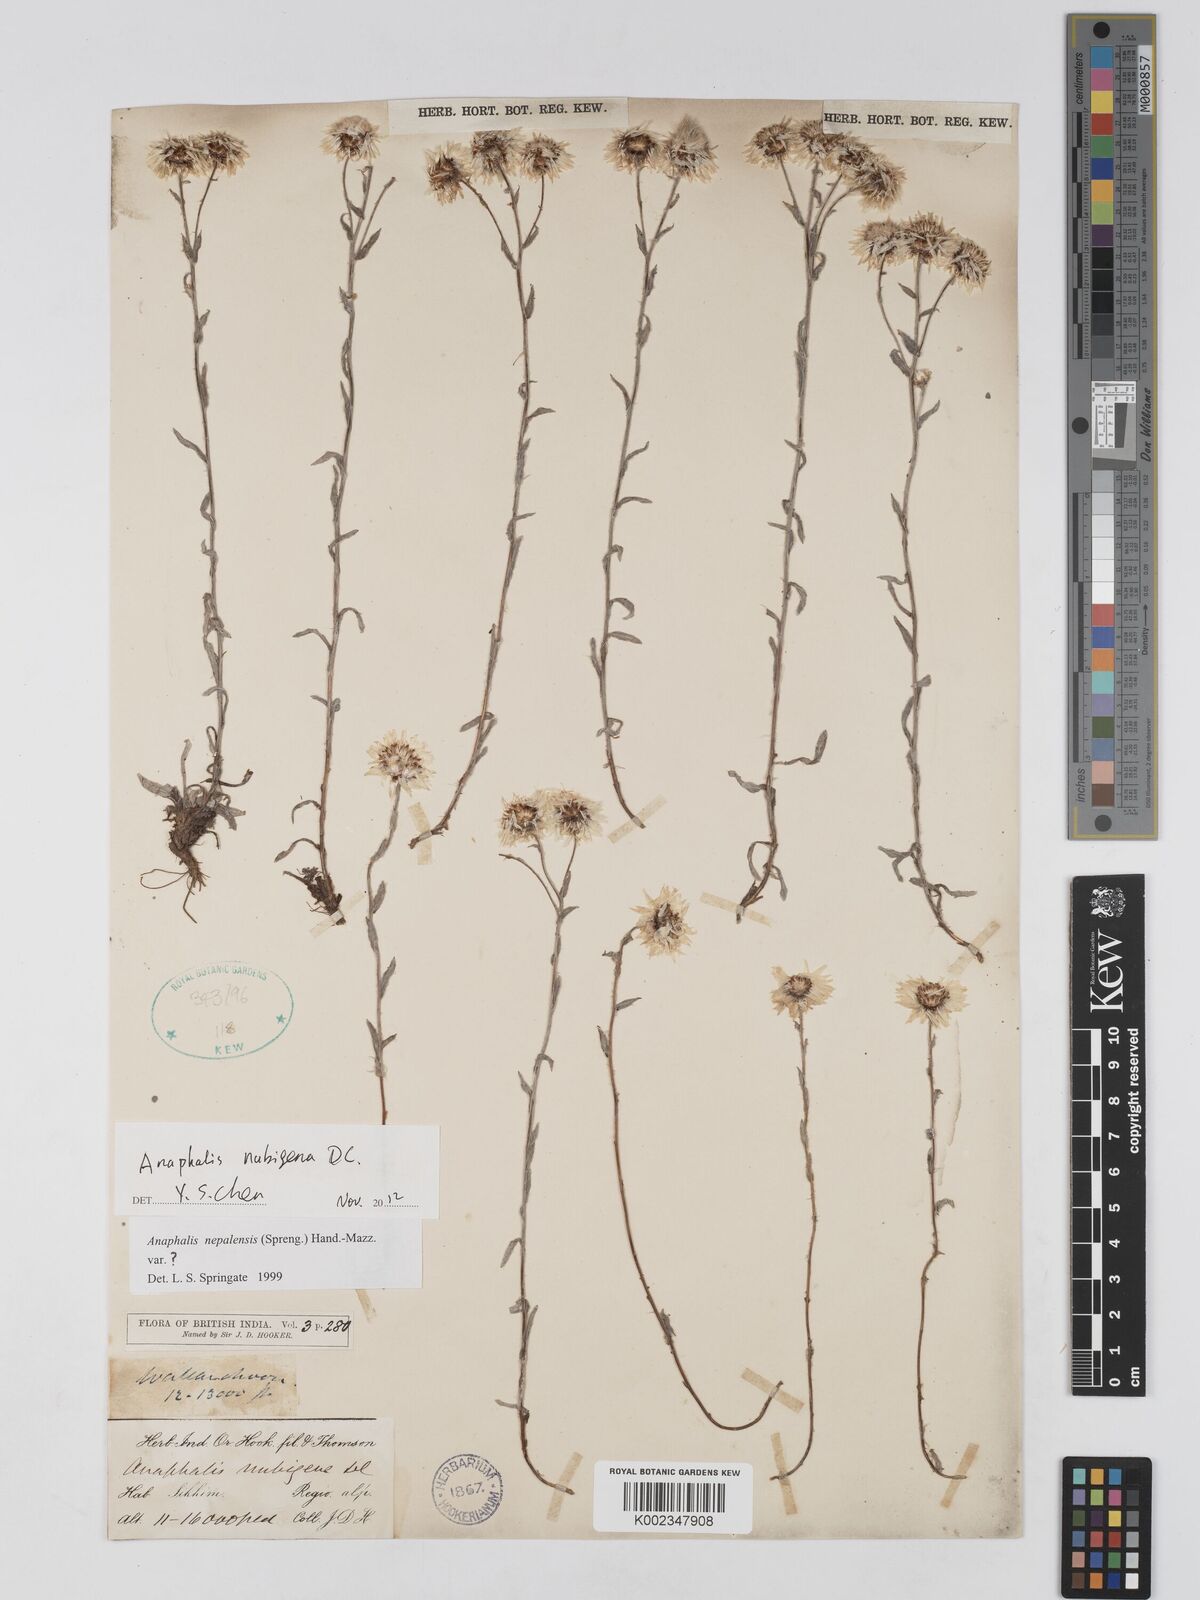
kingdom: Plantae
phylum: Tracheophyta
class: Magnoliopsida
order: Asterales
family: Asteraceae
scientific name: Asteraceae
